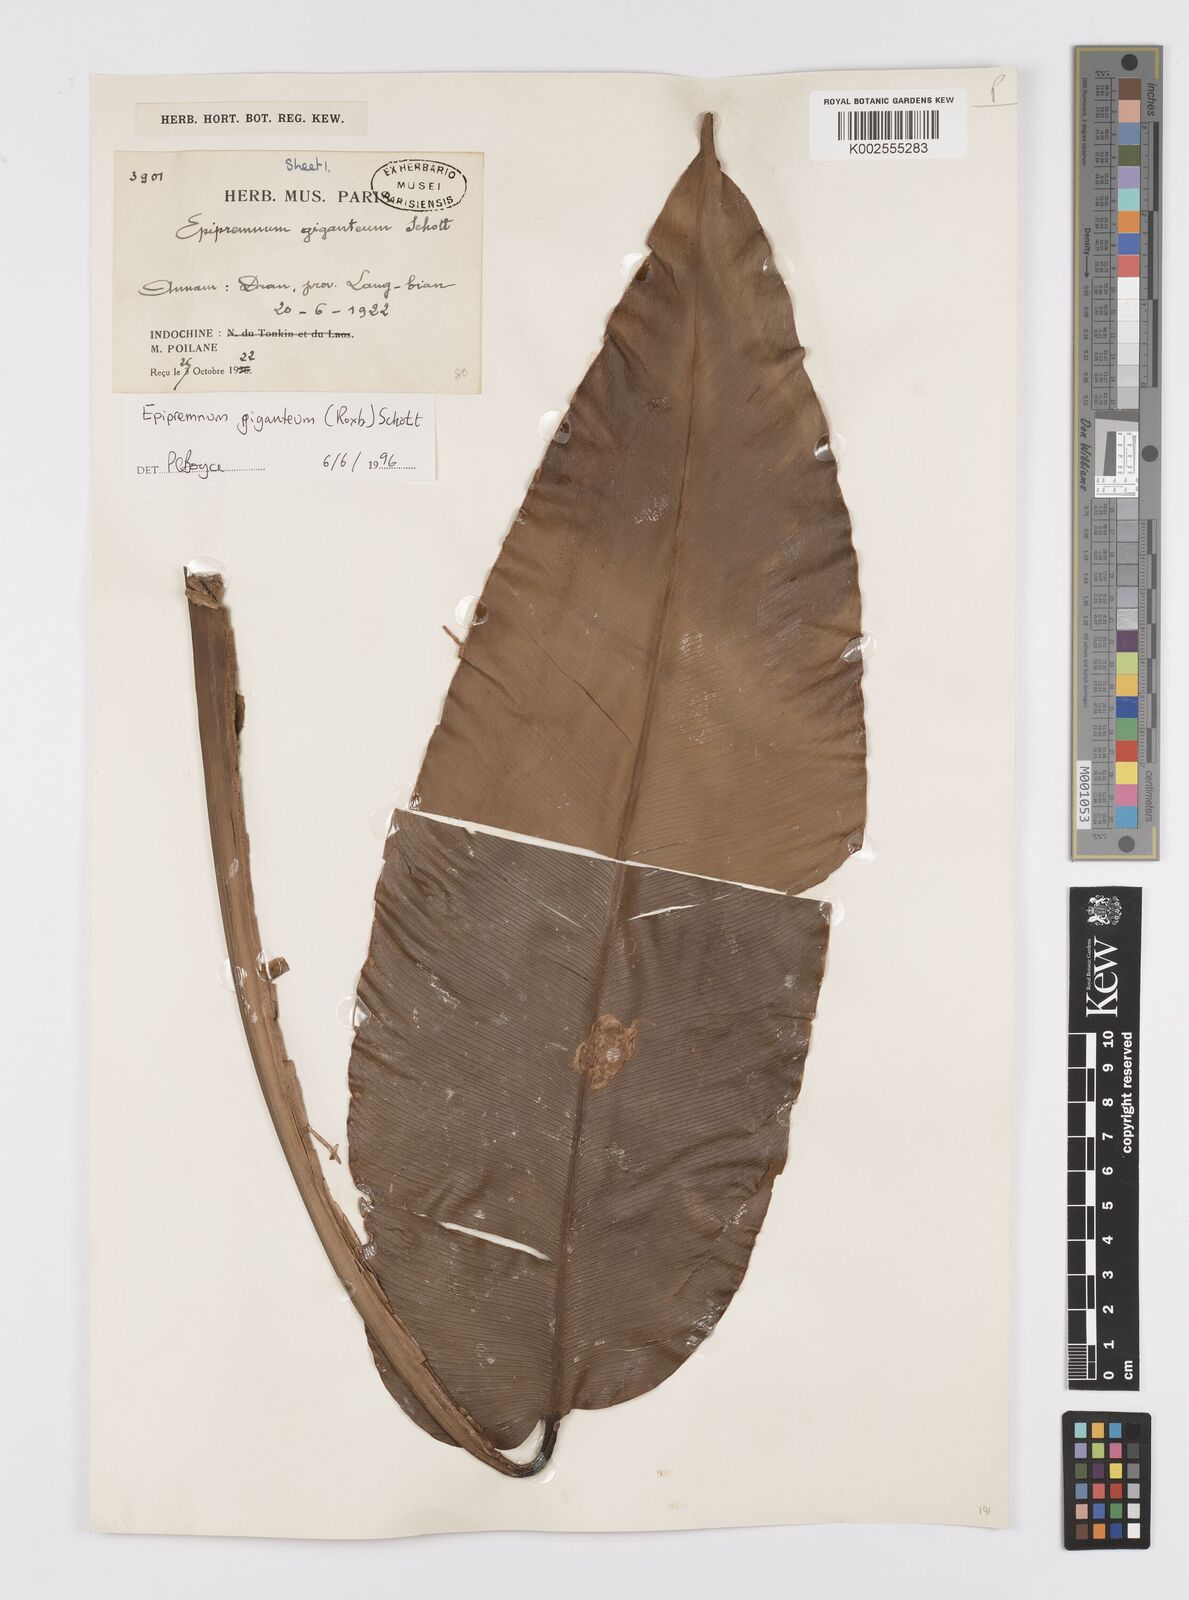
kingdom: Plantae
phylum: Tracheophyta
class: Liliopsida
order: Alismatales
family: Araceae
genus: Epipremnum
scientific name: Epipremnum giganteum
